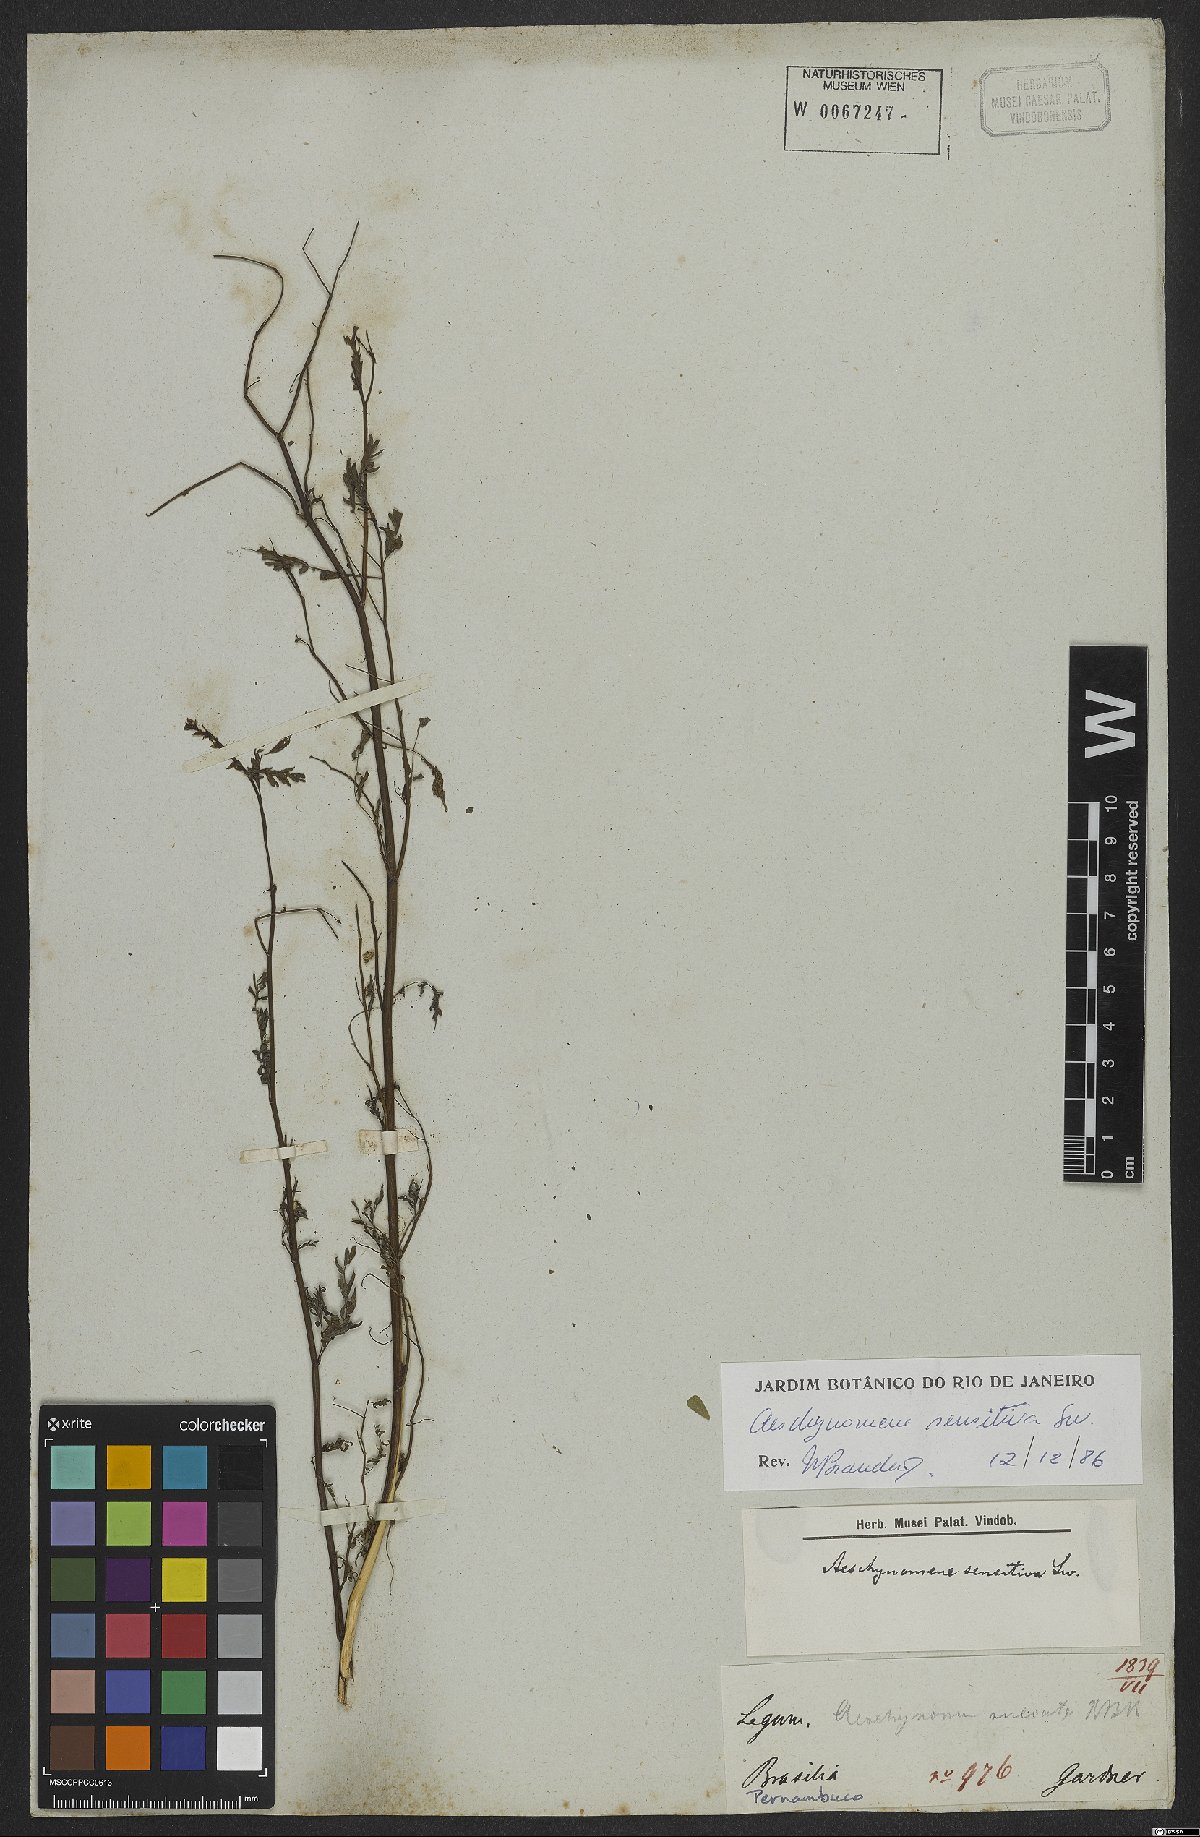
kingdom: Plantae
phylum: Tracheophyta
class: Magnoliopsida
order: Fabales
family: Fabaceae
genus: Aeschynomene
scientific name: Aeschynomene sensitiva
